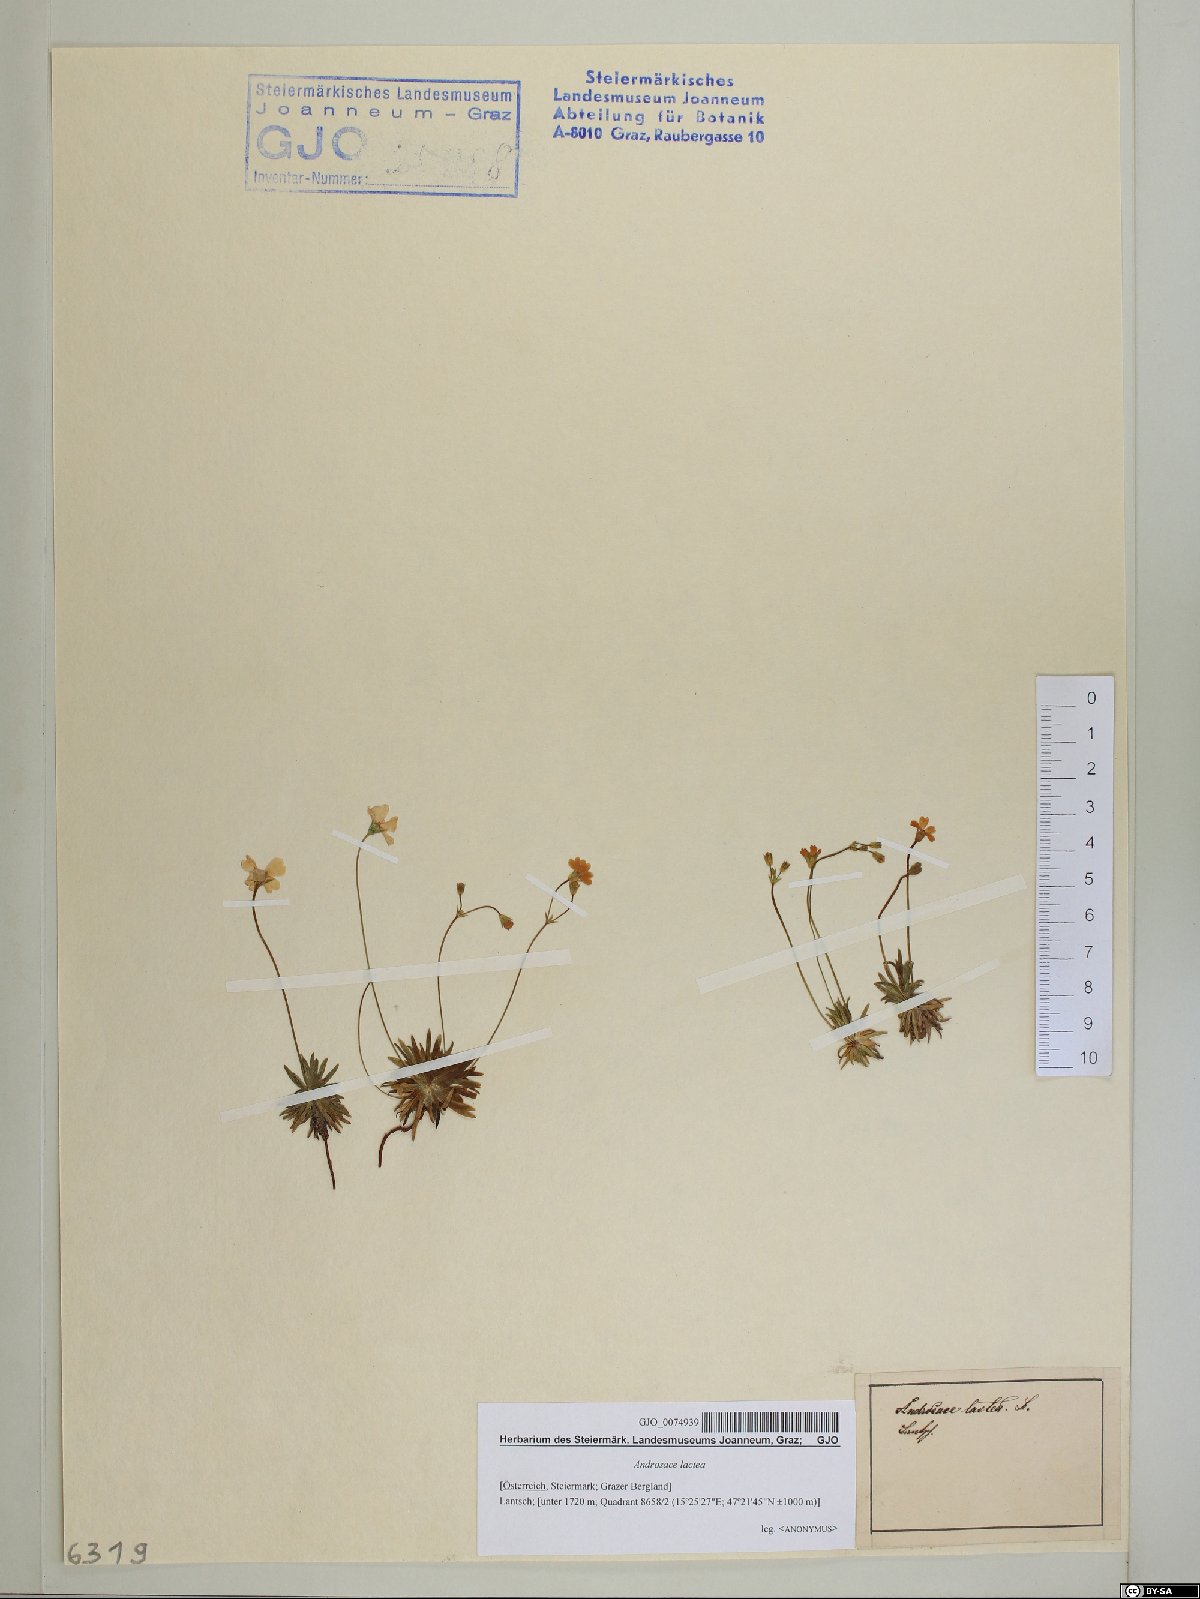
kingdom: Plantae
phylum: Tracheophyta
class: Magnoliopsida
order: Ericales
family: Primulaceae
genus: Androsace
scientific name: Androsace lactea
